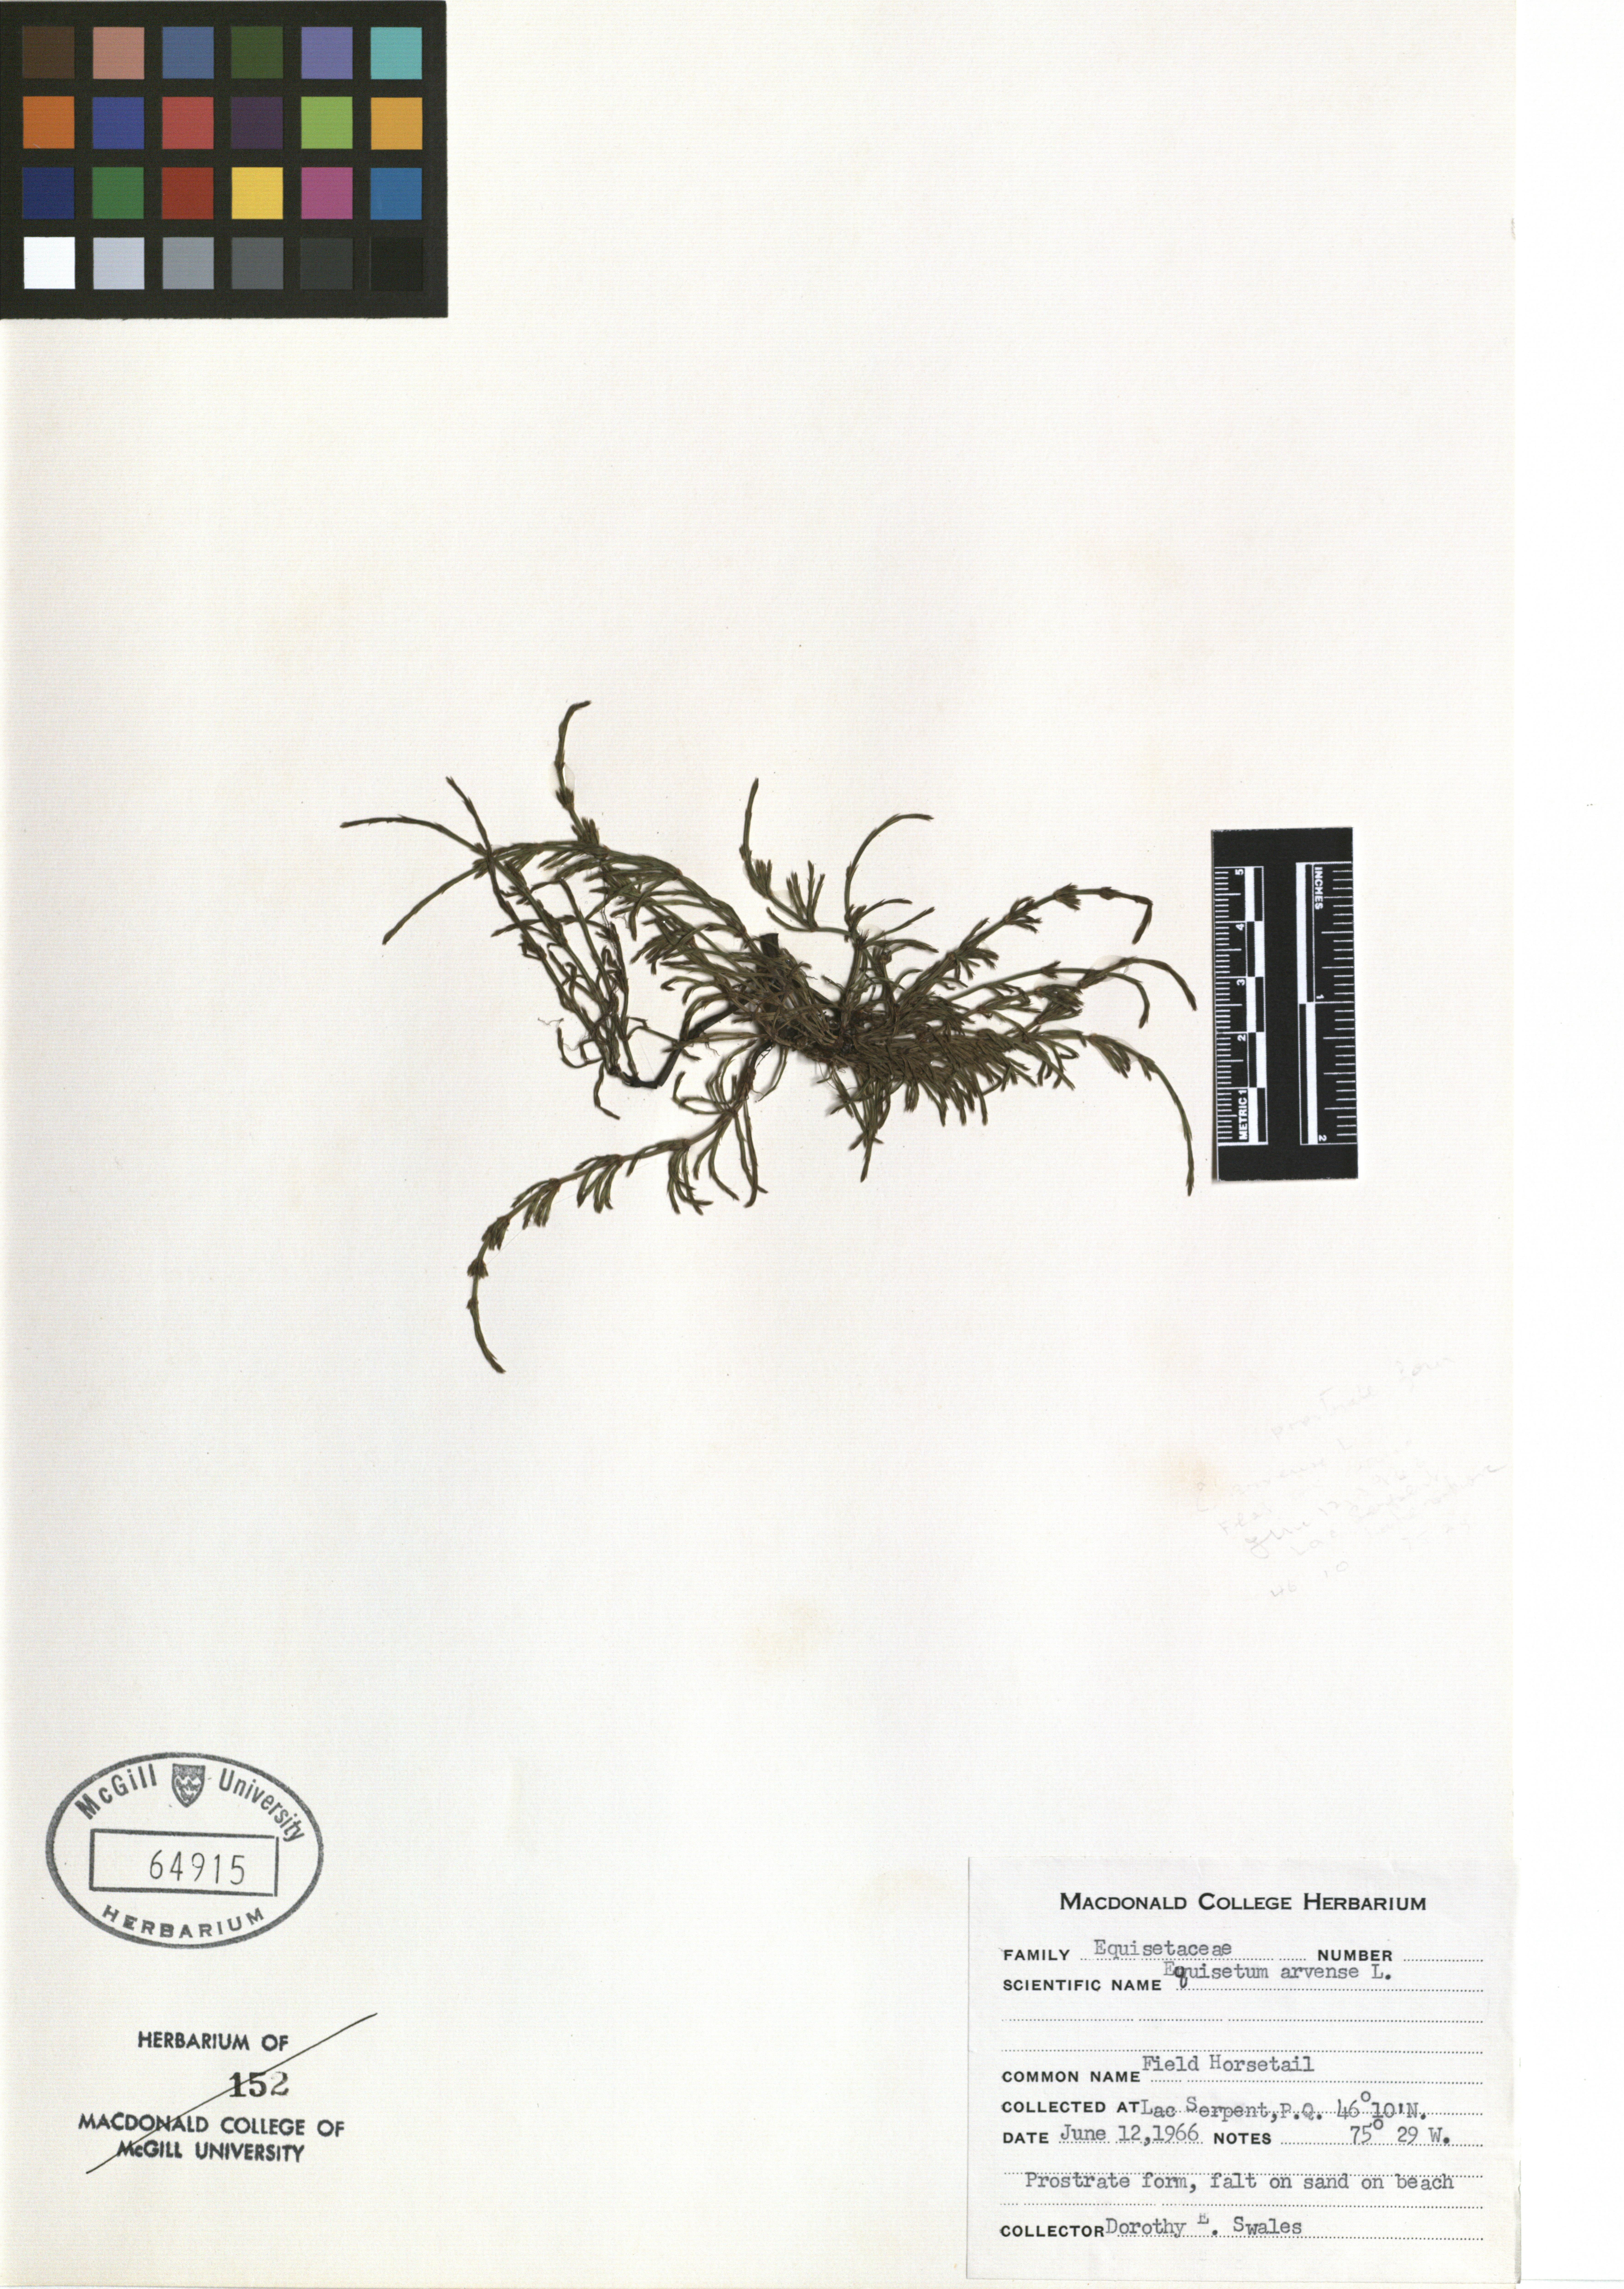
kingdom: Plantae
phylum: Tracheophyta
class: Polypodiopsida
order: Equisetales
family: Equisetaceae
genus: Equisetum
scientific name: Equisetum arvense
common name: Field horsetail
